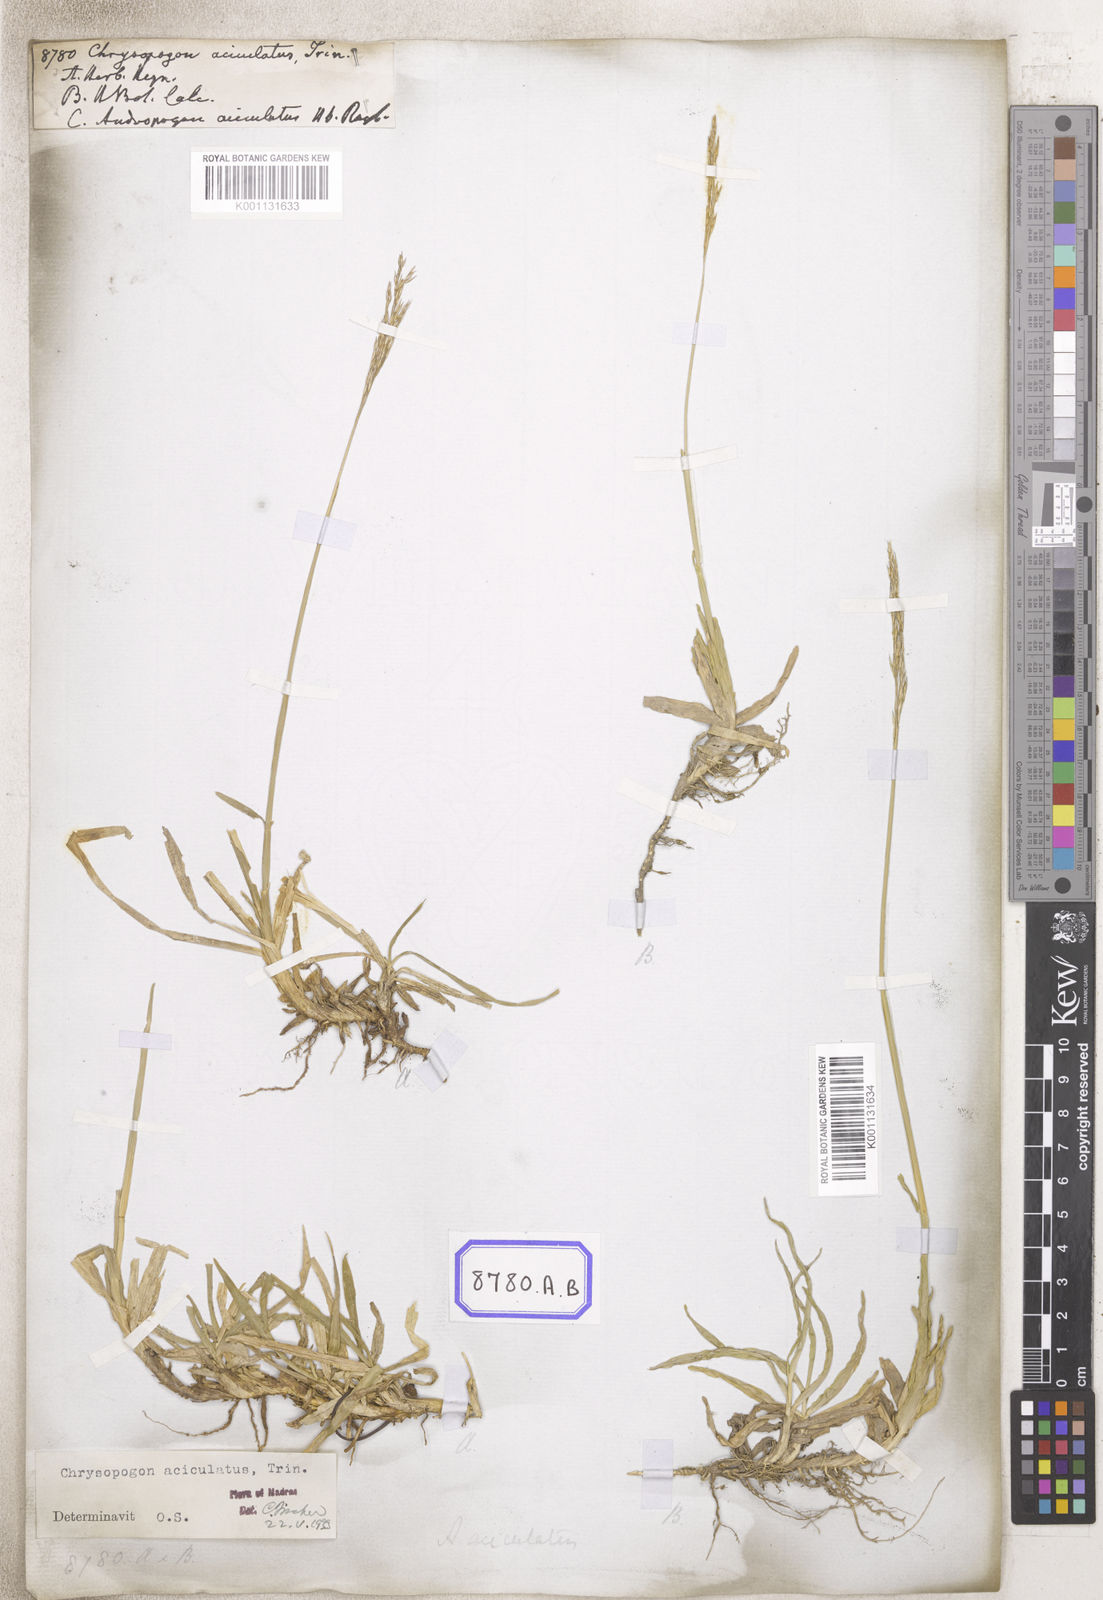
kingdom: Plantae
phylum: Tracheophyta
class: Liliopsida
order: Poales
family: Poaceae
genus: Chrysopogon
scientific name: Chrysopogon aciculatus
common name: Pilipiliula
